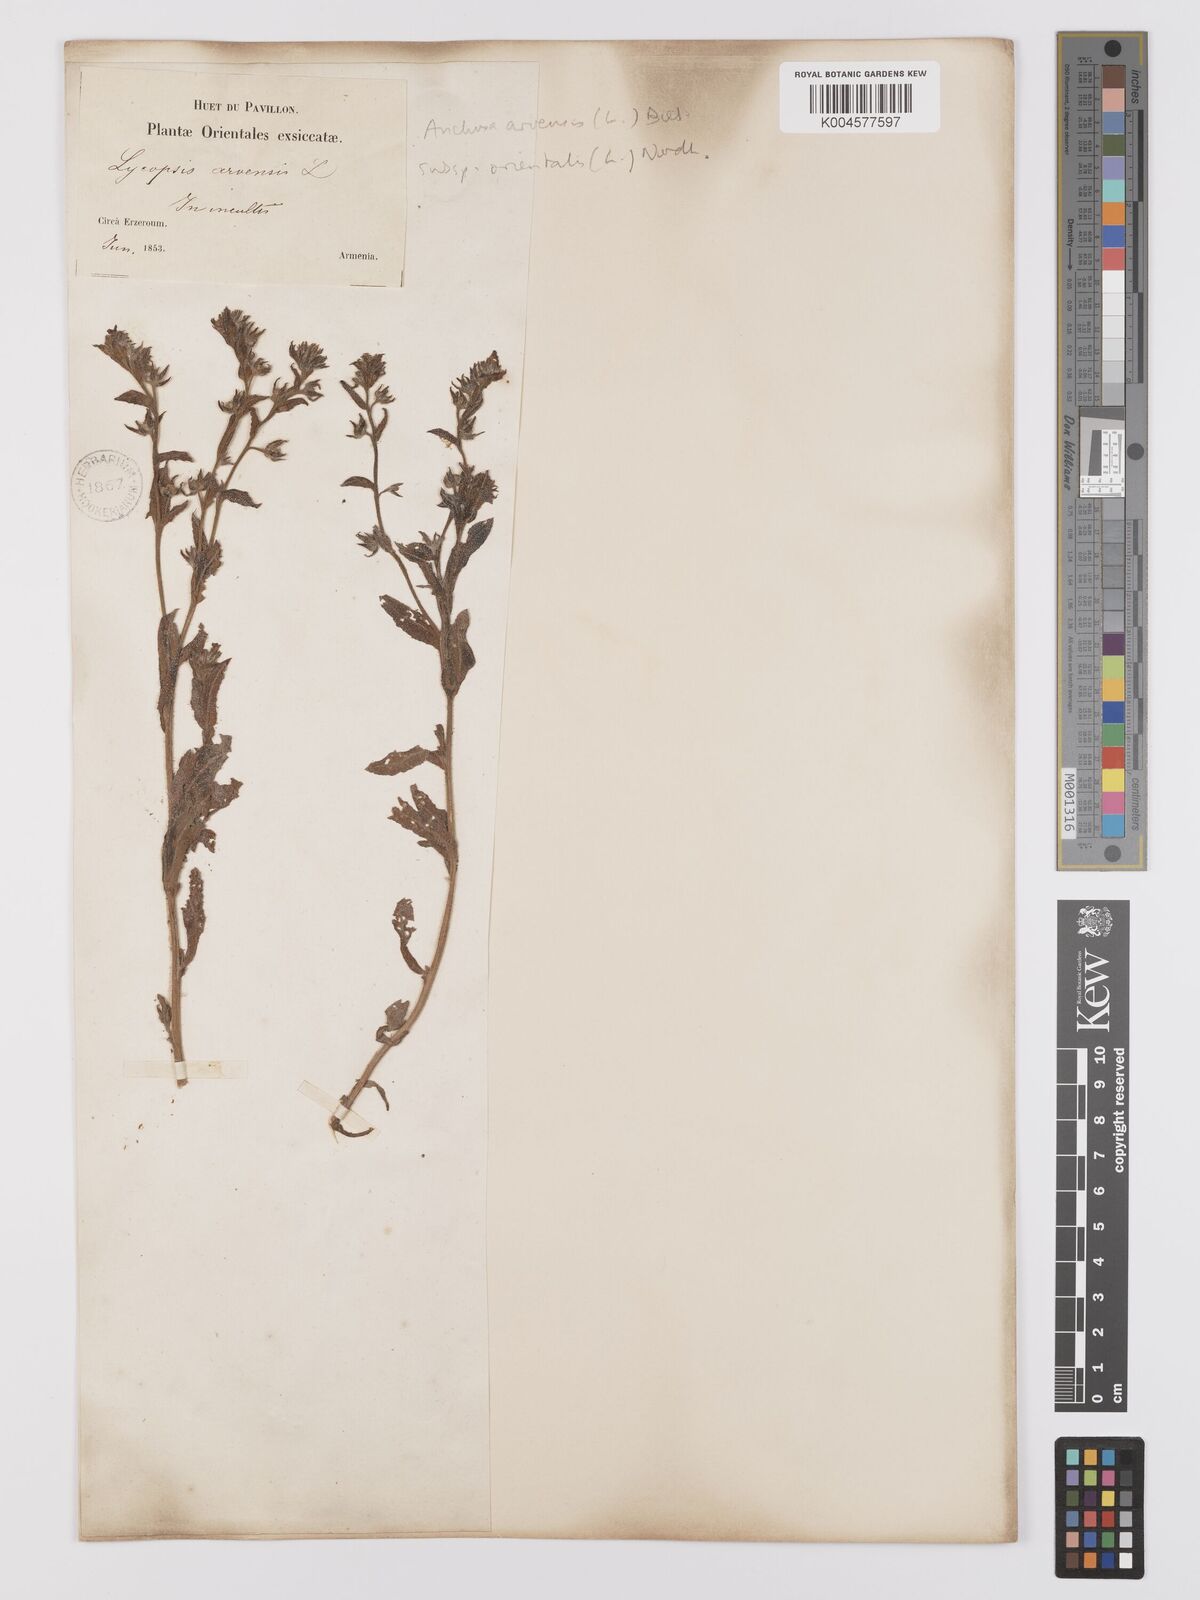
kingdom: Plantae
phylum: Tracheophyta
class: Magnoliopsida
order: Boraginales
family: Boraginaceae
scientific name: Boraginaceae
